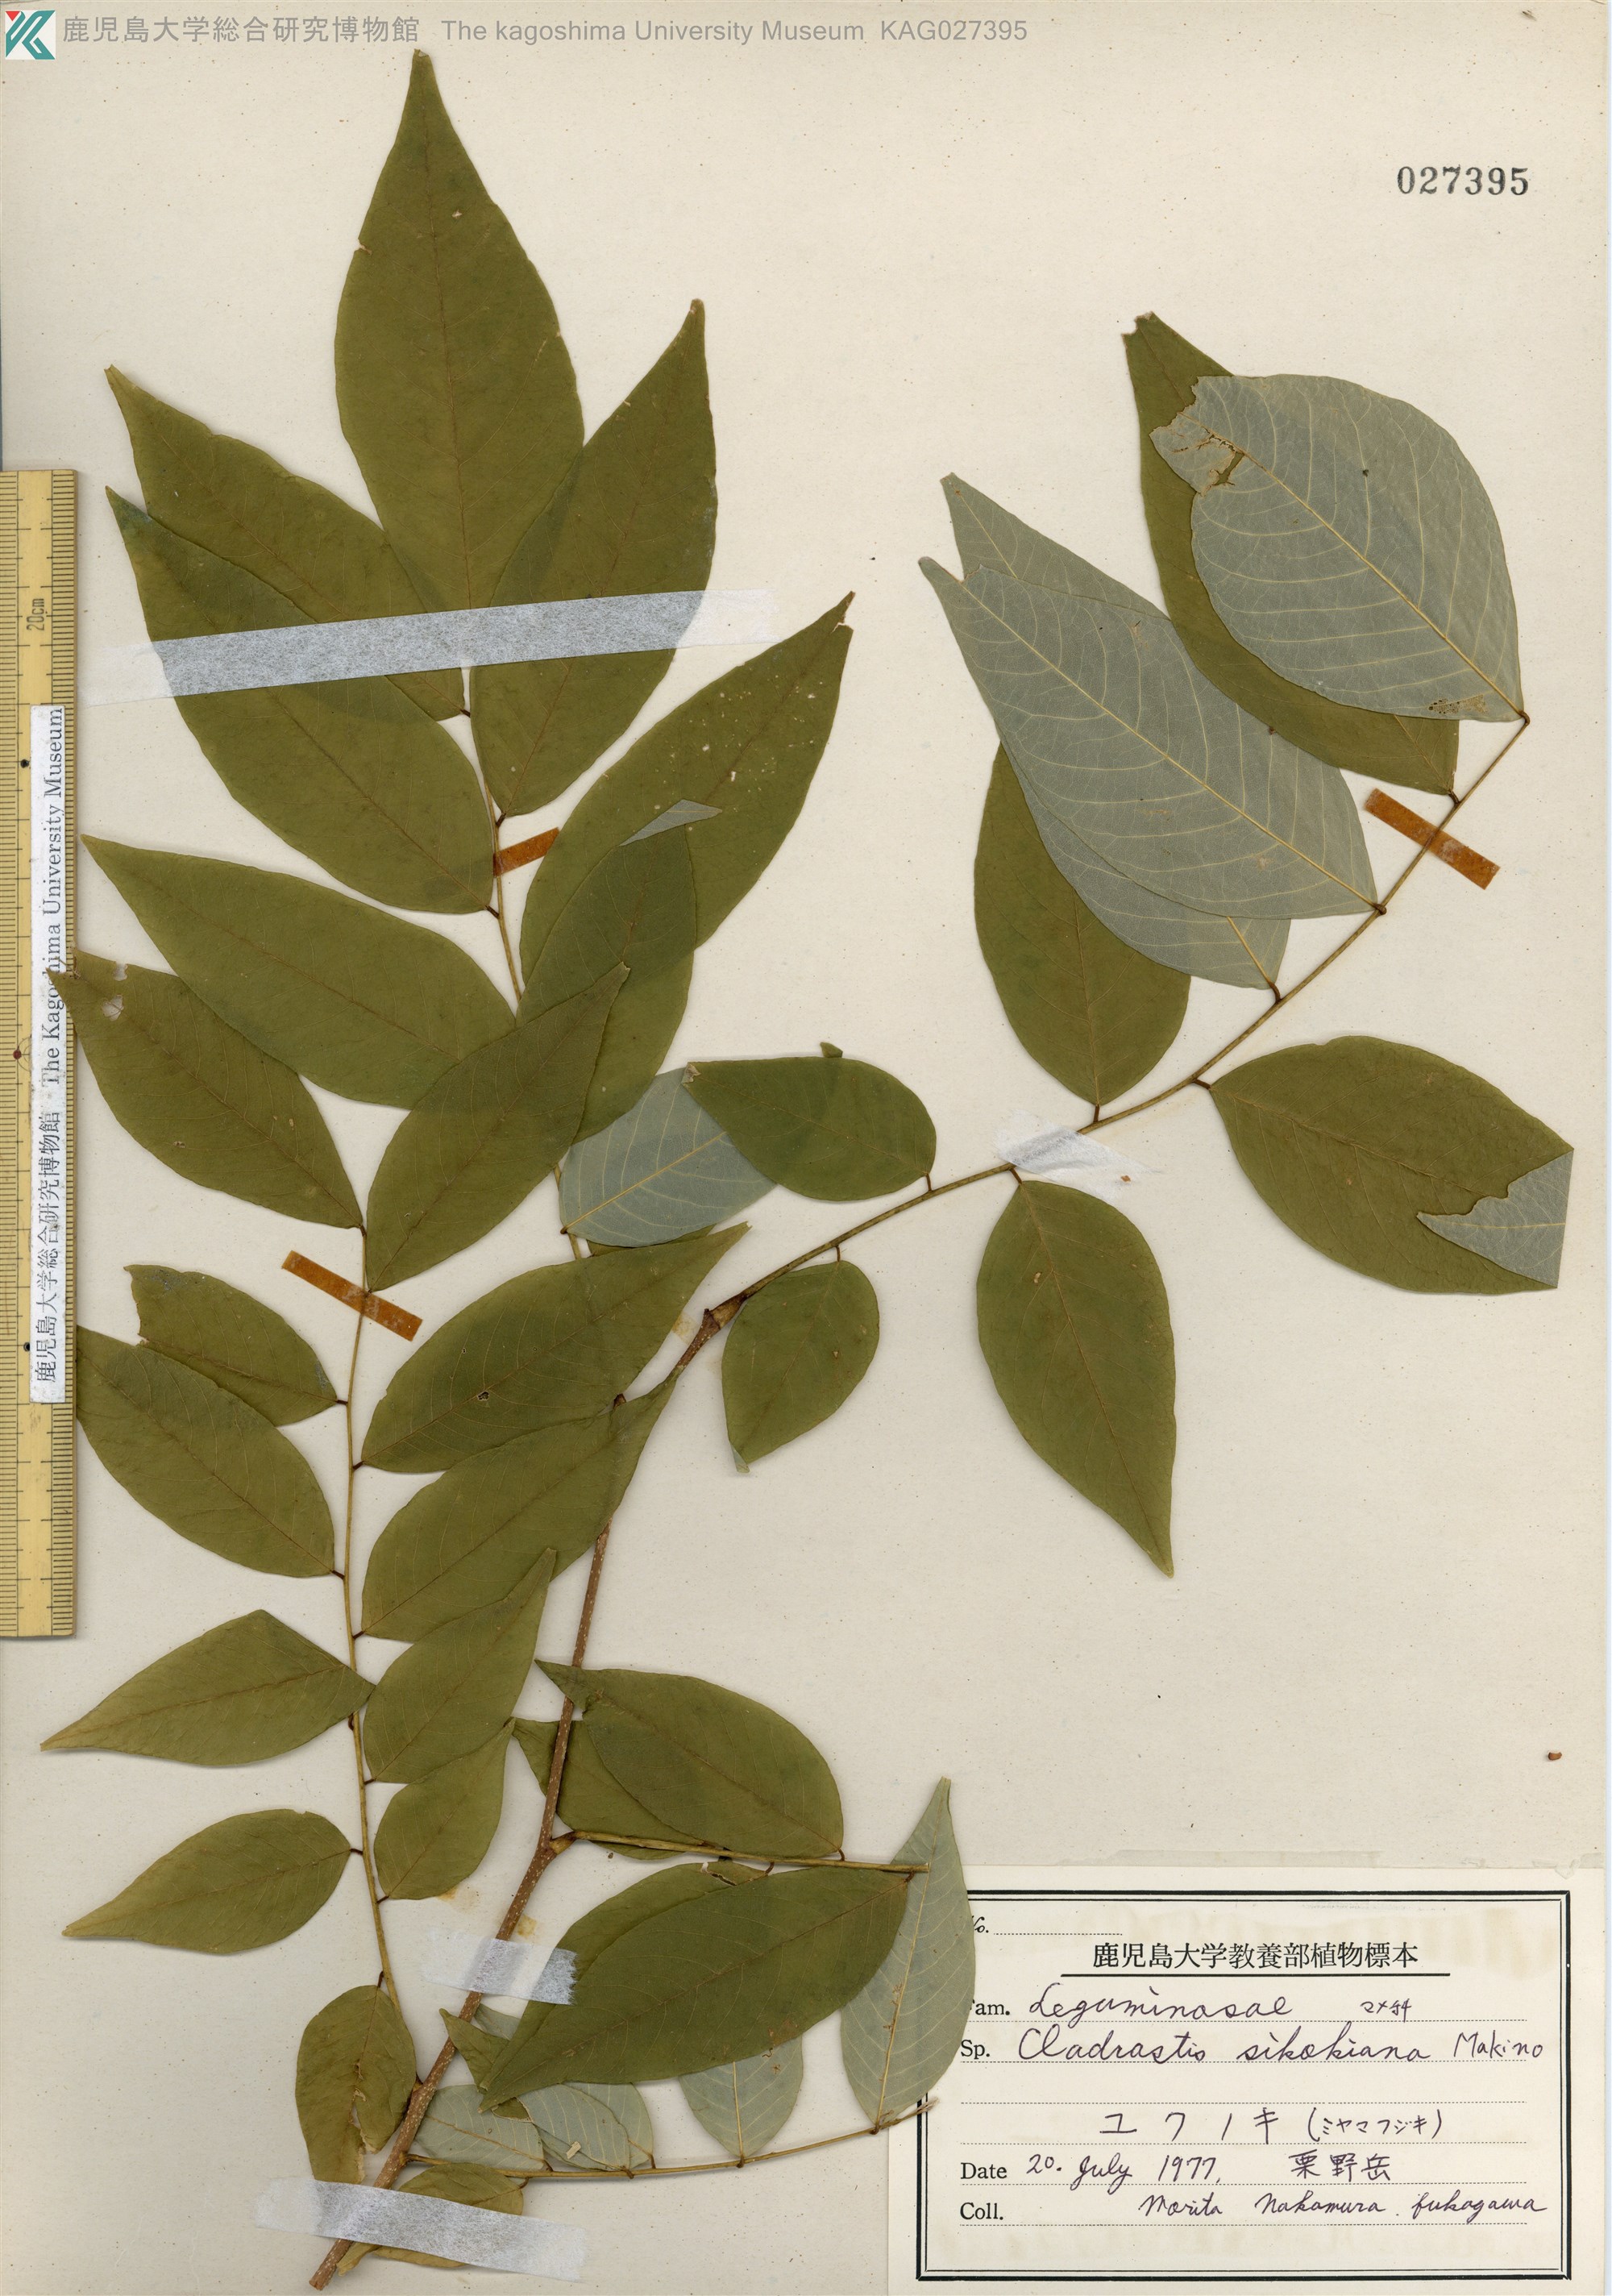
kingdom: Plantae
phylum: Tracheophyta
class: Magnoliopsida
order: Fabales
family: Fabaceae
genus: Cladrastis
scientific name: Cladrastis shikokiana
